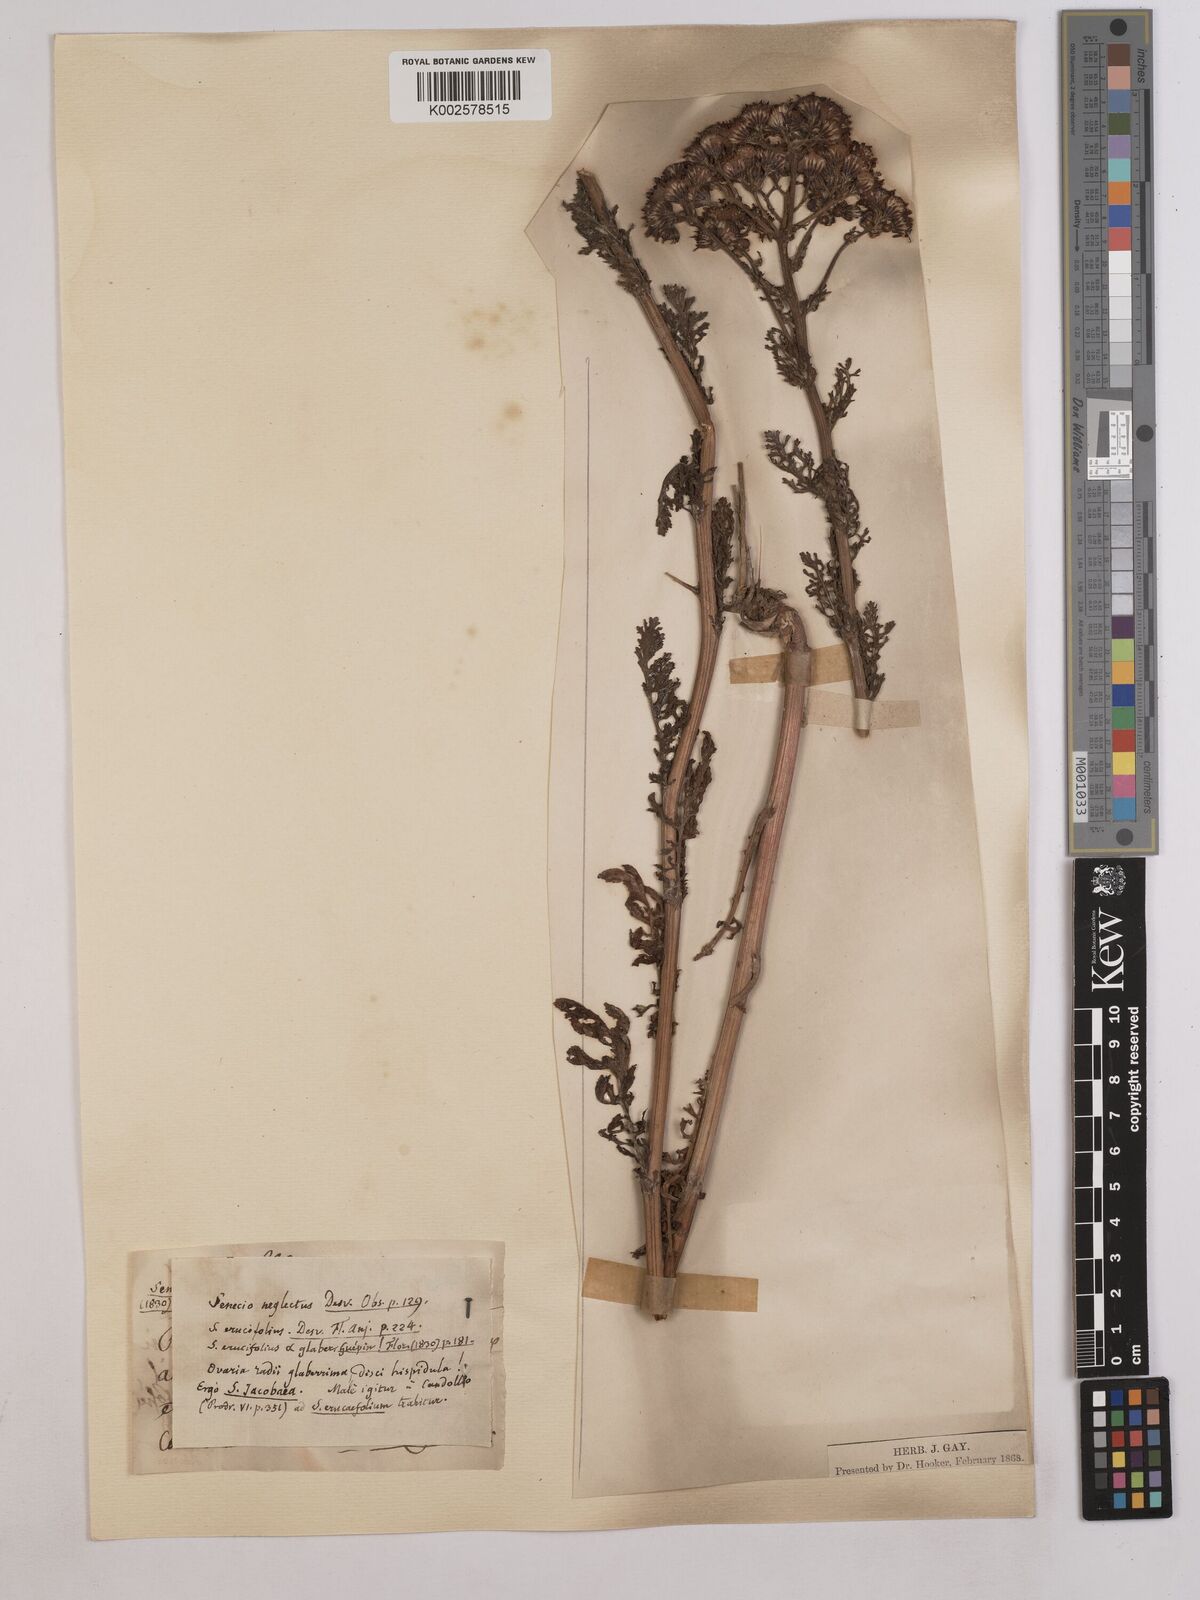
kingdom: Plantae
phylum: Tracheophyta
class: Magnoliopsida
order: Asterales
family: Asteraceae
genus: Jacobaea
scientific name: Jacobaea vulgaris
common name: Stinking willie
